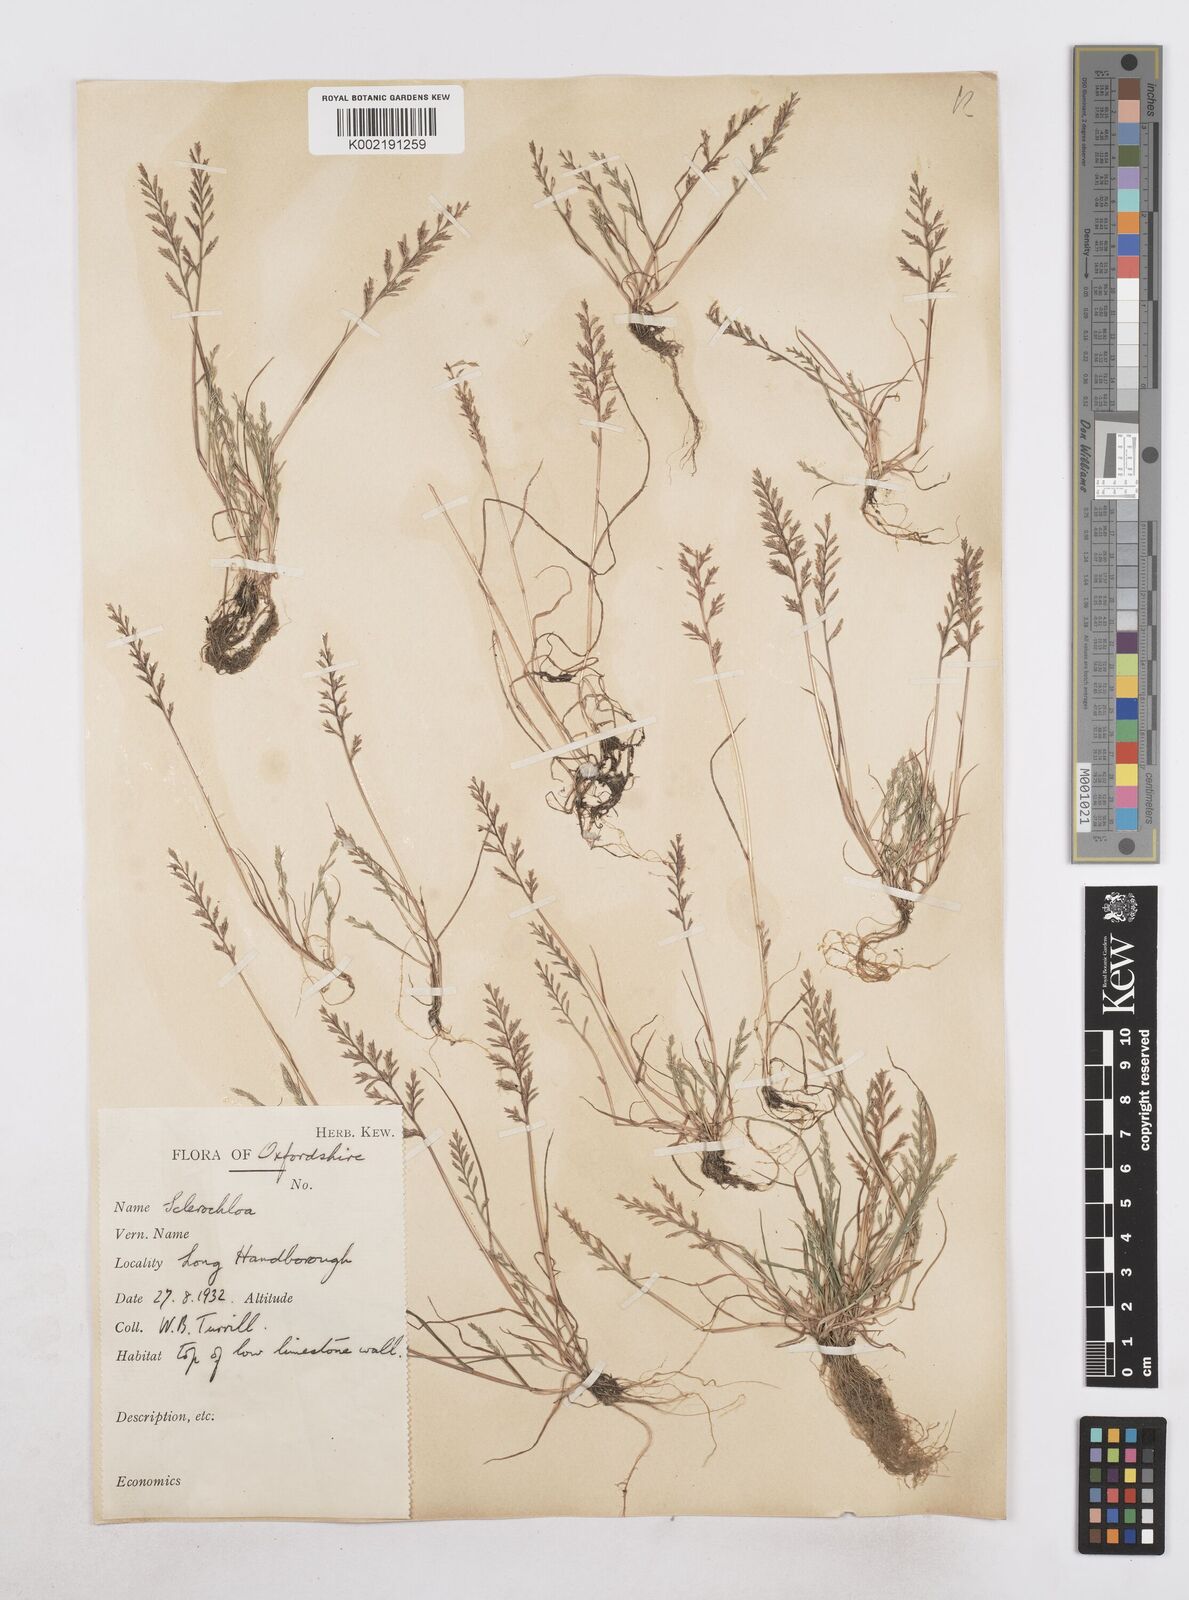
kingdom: Plantae
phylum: Tracheophyta
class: Liliopsida
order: Poales
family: Poaceae
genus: Catapodium
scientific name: Catapodium rigidum
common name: Fern-grass
